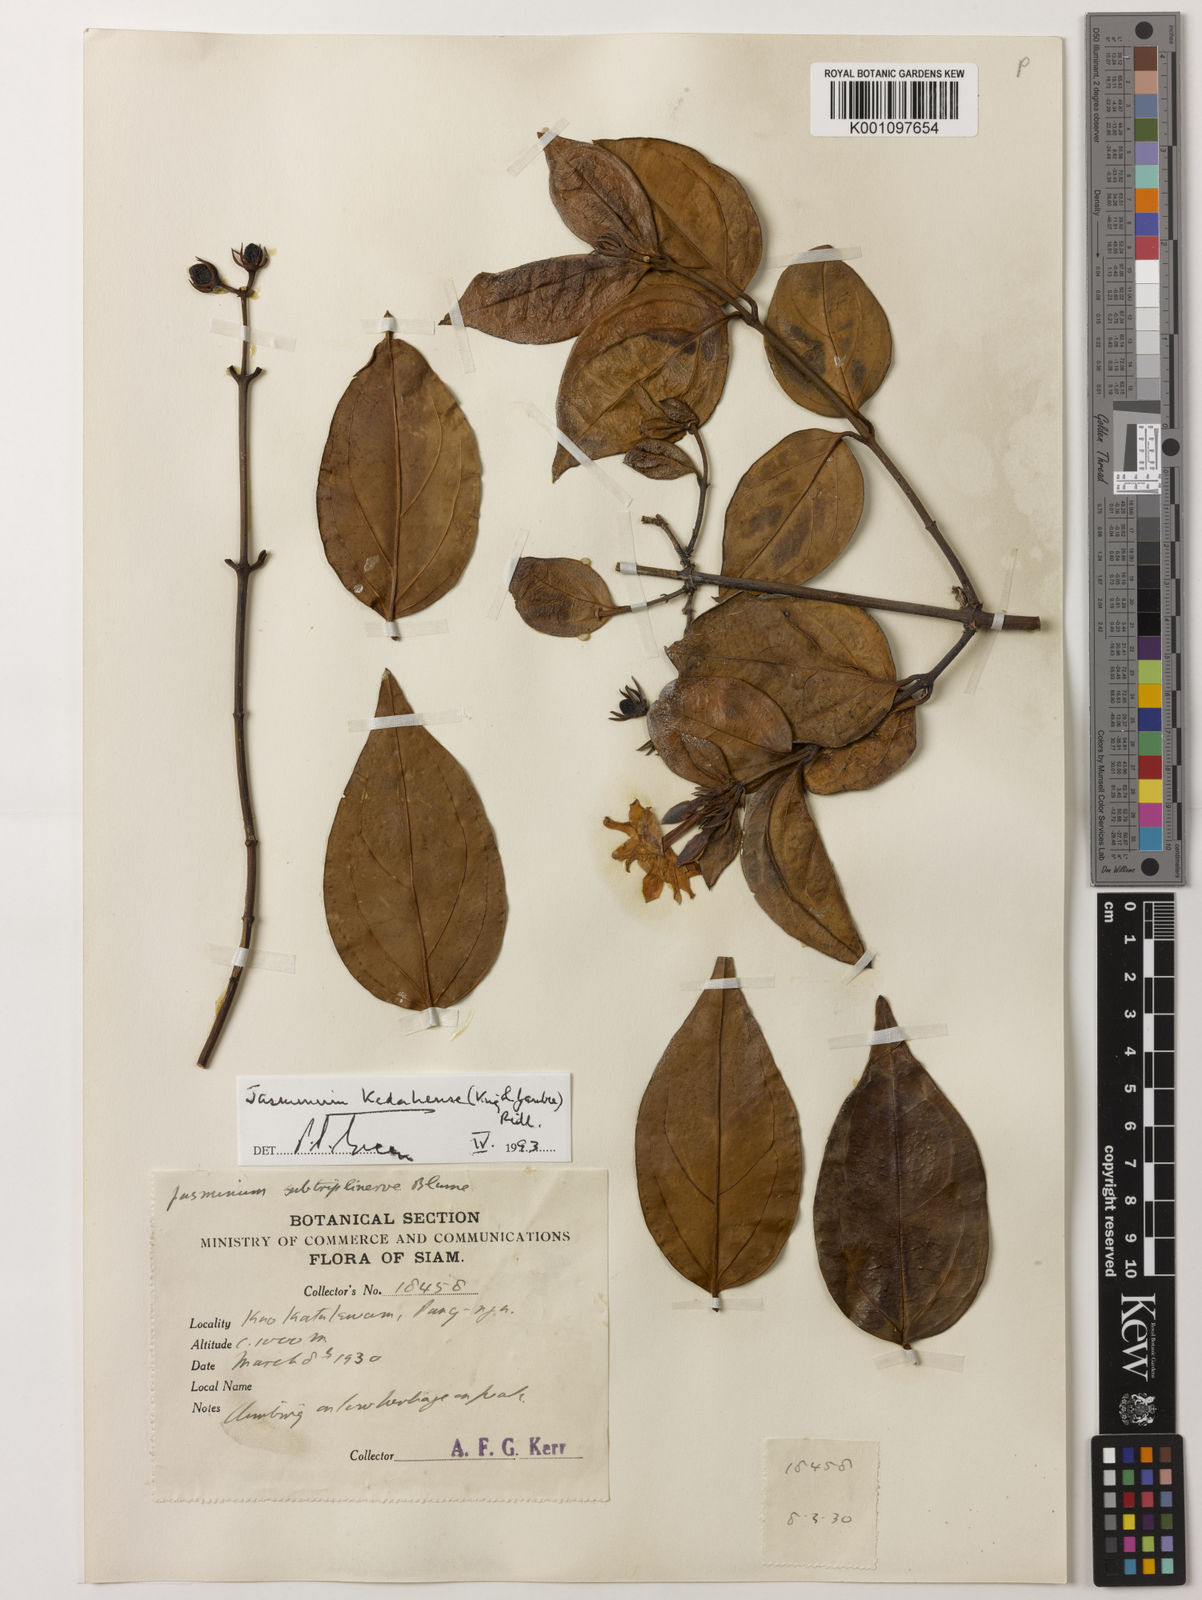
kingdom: Plantae
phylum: Tracheophyta
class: Magnoliopsida
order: Lamiales
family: Oleaceae
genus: Jasminum
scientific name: Jasminum kedahense
